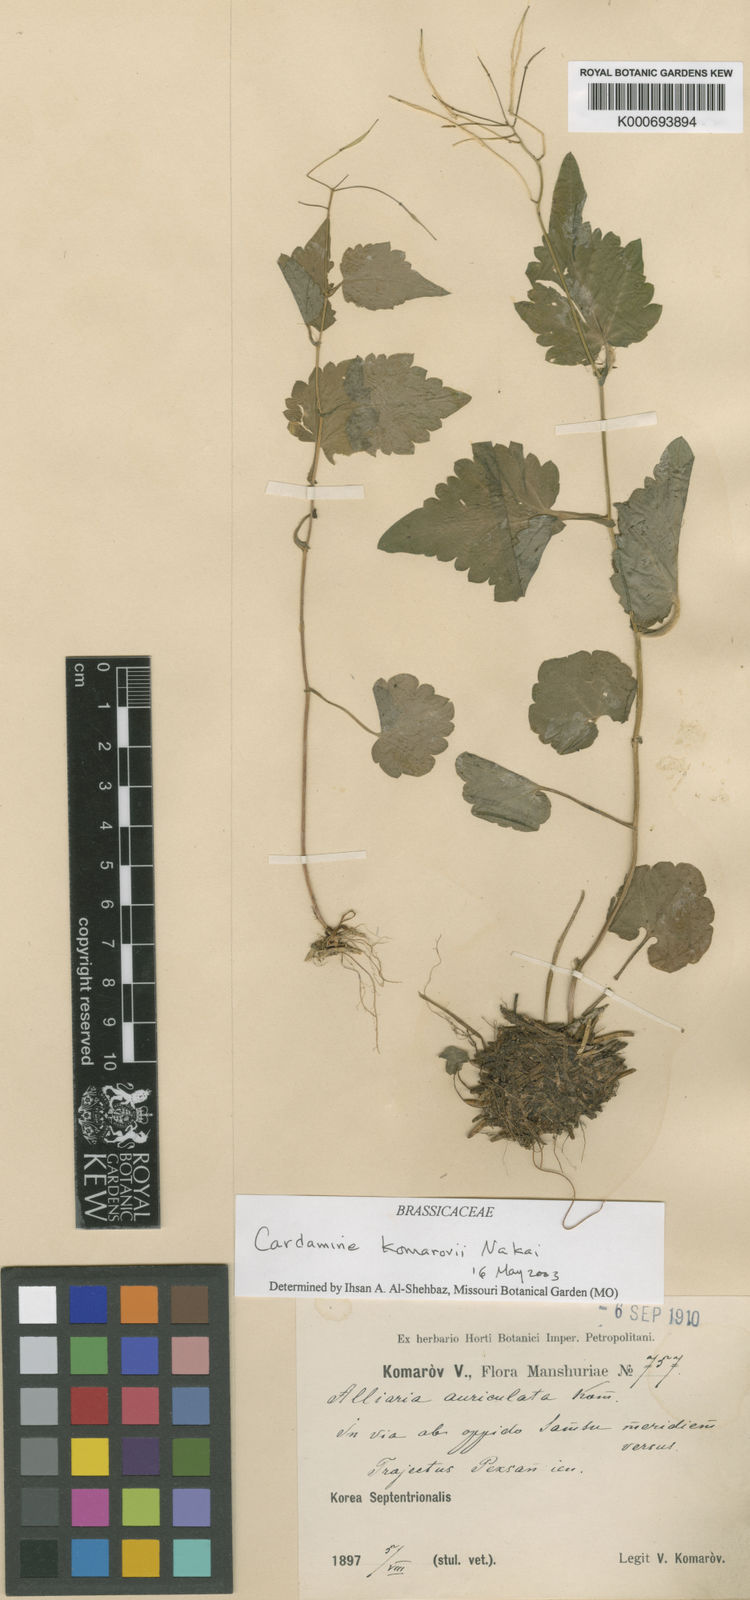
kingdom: Plantae
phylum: Tracheophyta
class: Magnoliopsida
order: Brassicales
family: Brassicaceae
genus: Cardamine
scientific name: Cardamine komarovii
